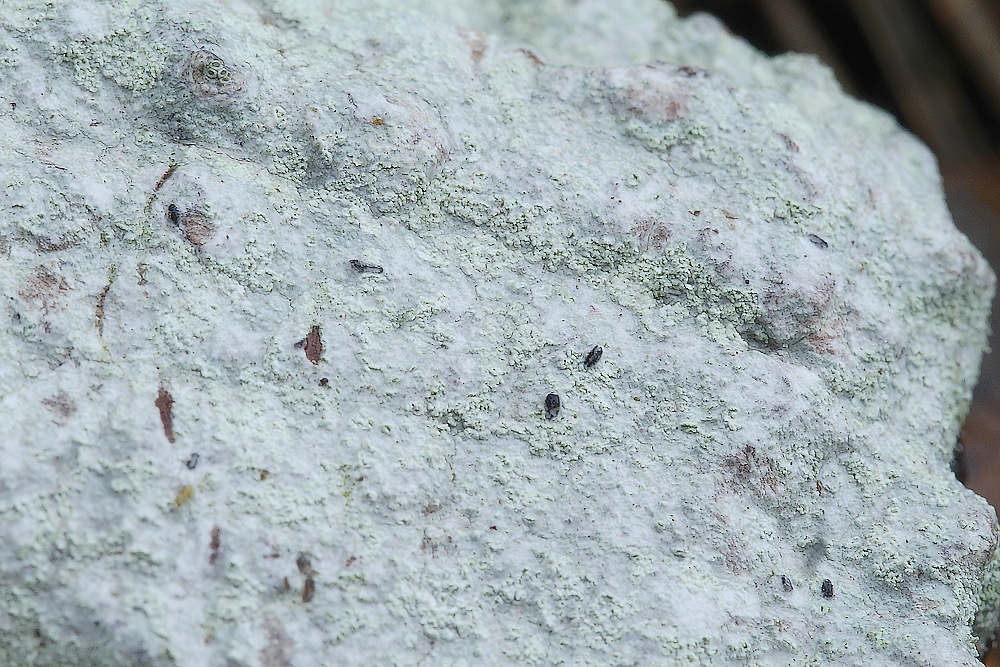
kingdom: Fungi
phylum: Ascomycota
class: Lecanoromycetes
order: Lecanorales
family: Parmeliaceae
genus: Lichen
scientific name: Lichen
